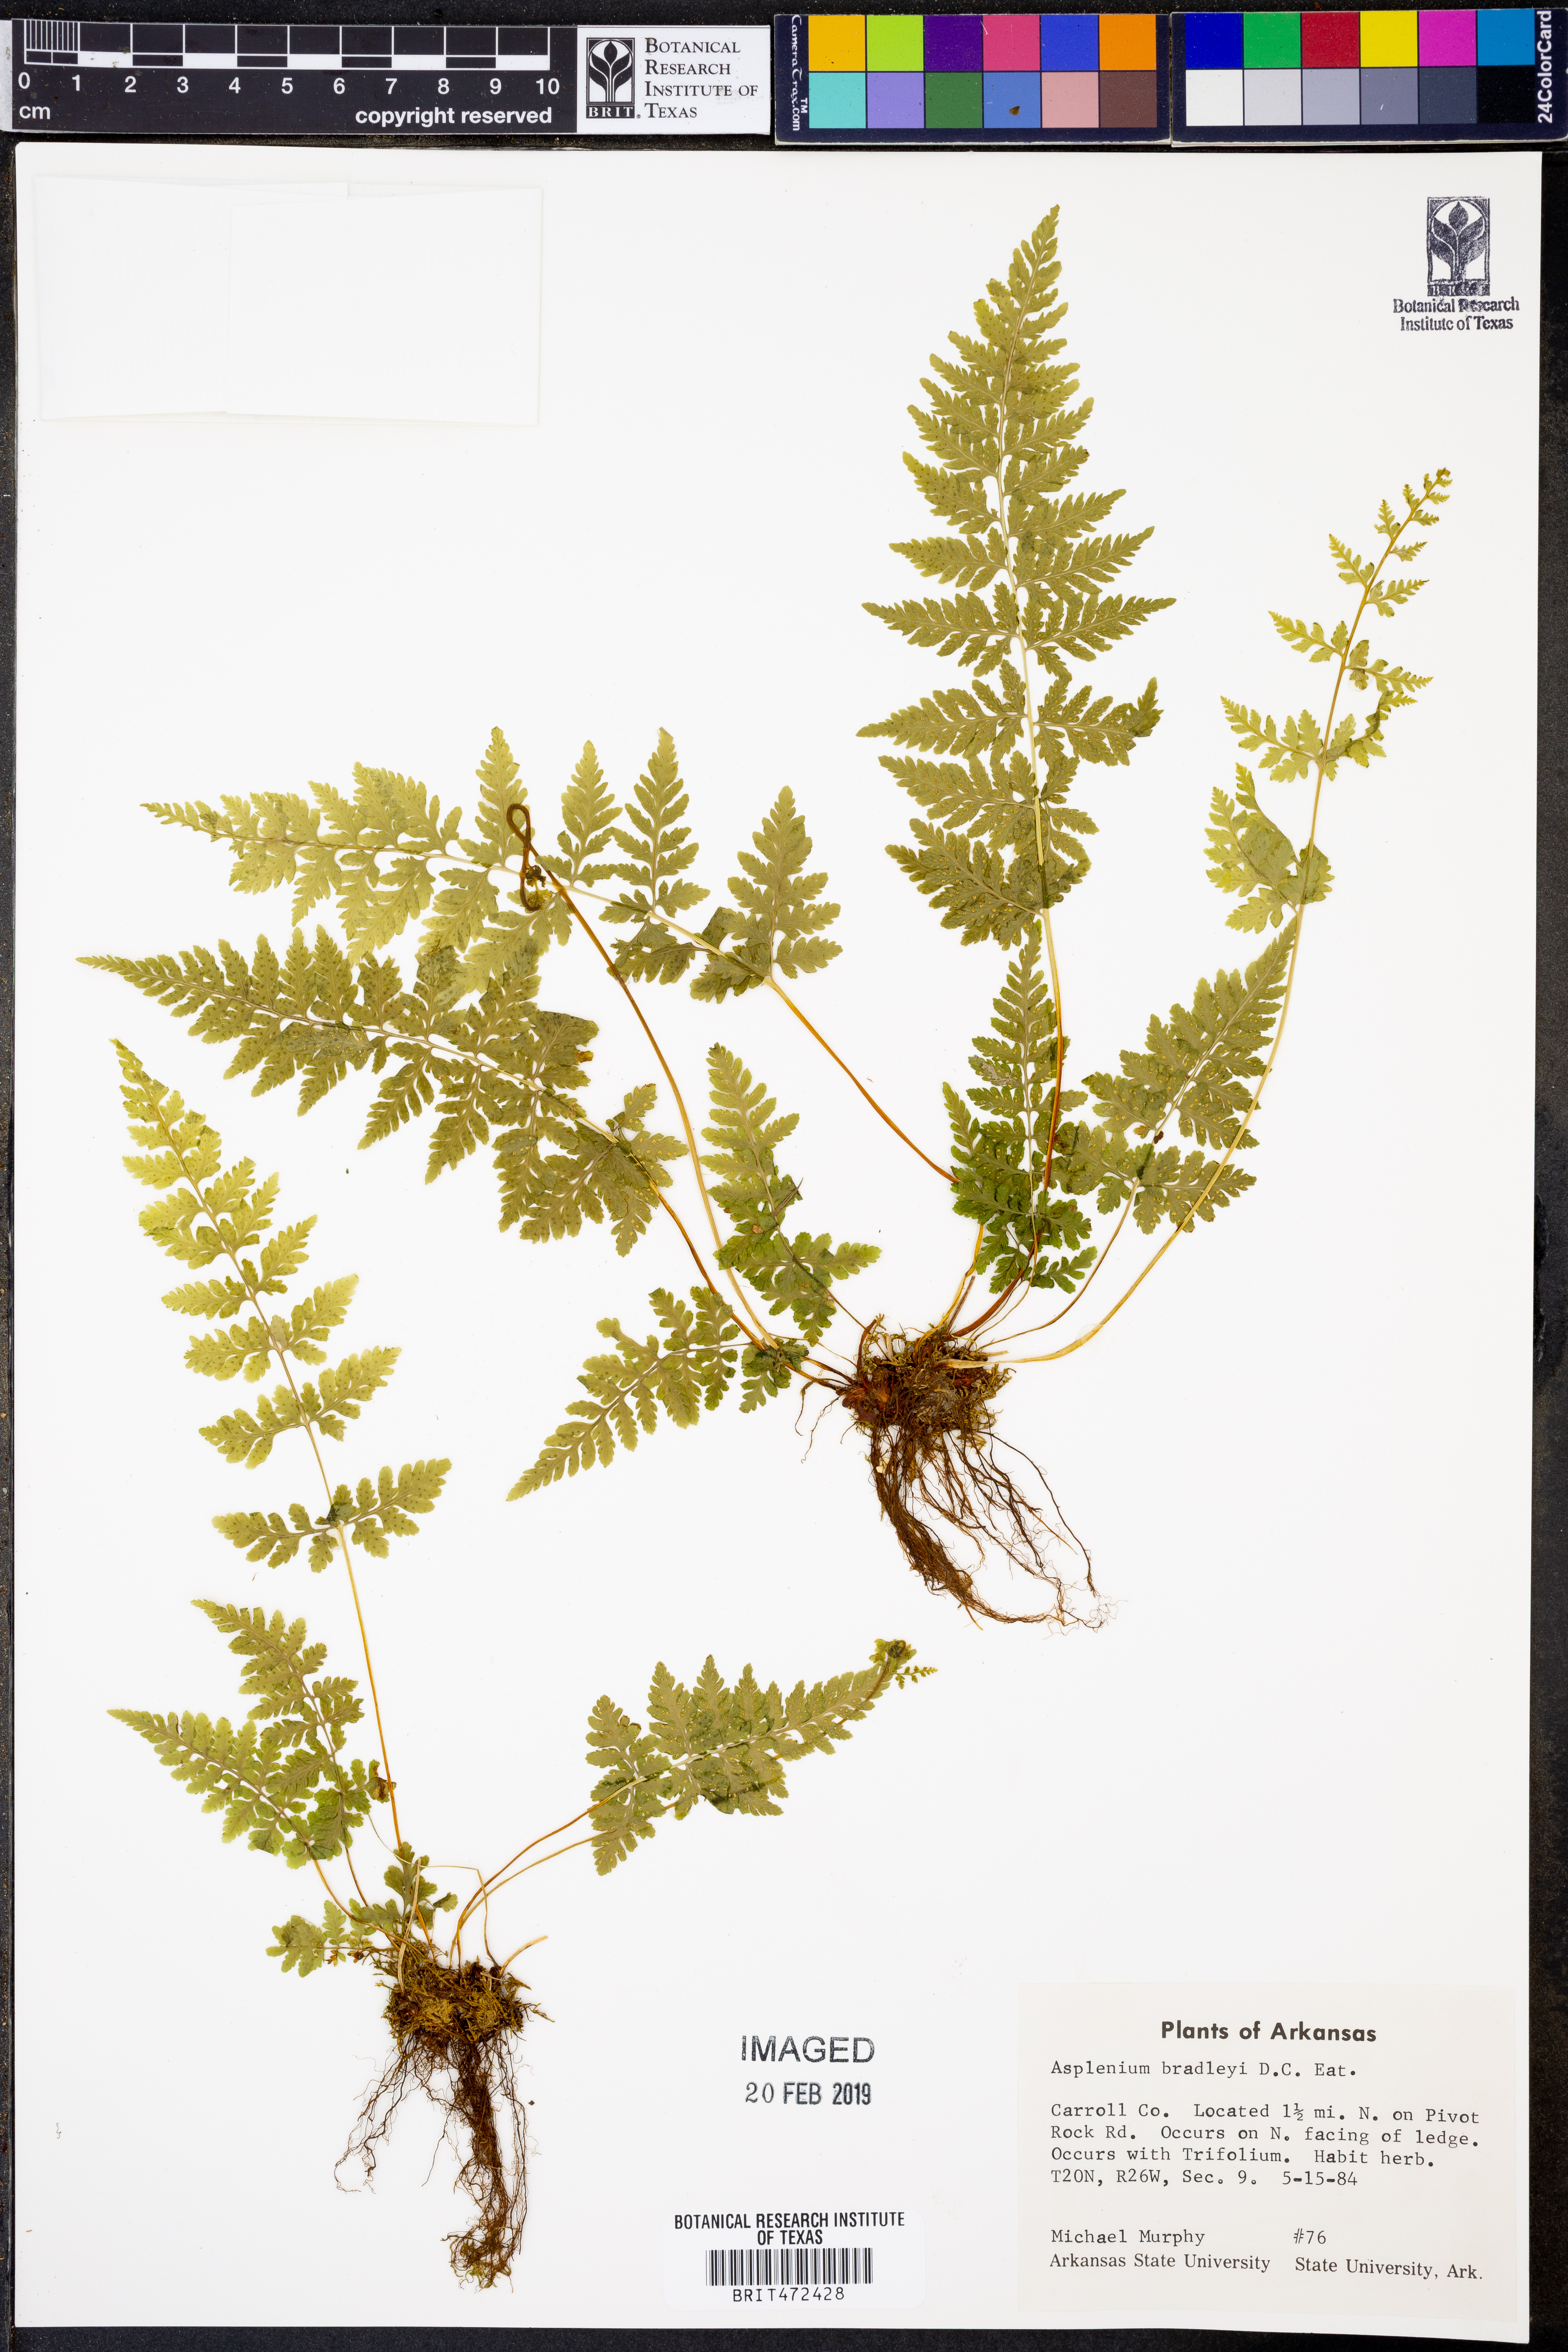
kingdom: Plantae
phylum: Tracheophyta
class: Polypodiopsida
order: Polypodiales
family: Aspleniaceae
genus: Asplenium
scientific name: Asplenium bradleyi
